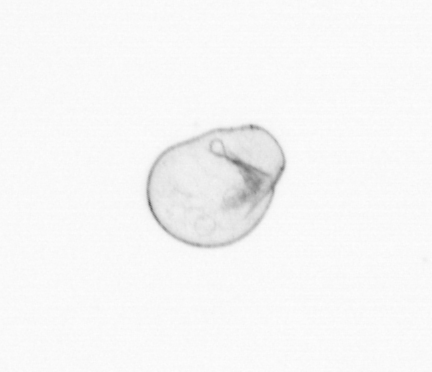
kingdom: Chromista
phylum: Myzozoa
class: Dinophyceae
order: Noctilucales
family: Noctilucaceae
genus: Noctiluca
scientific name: Noctiluca scintillans
